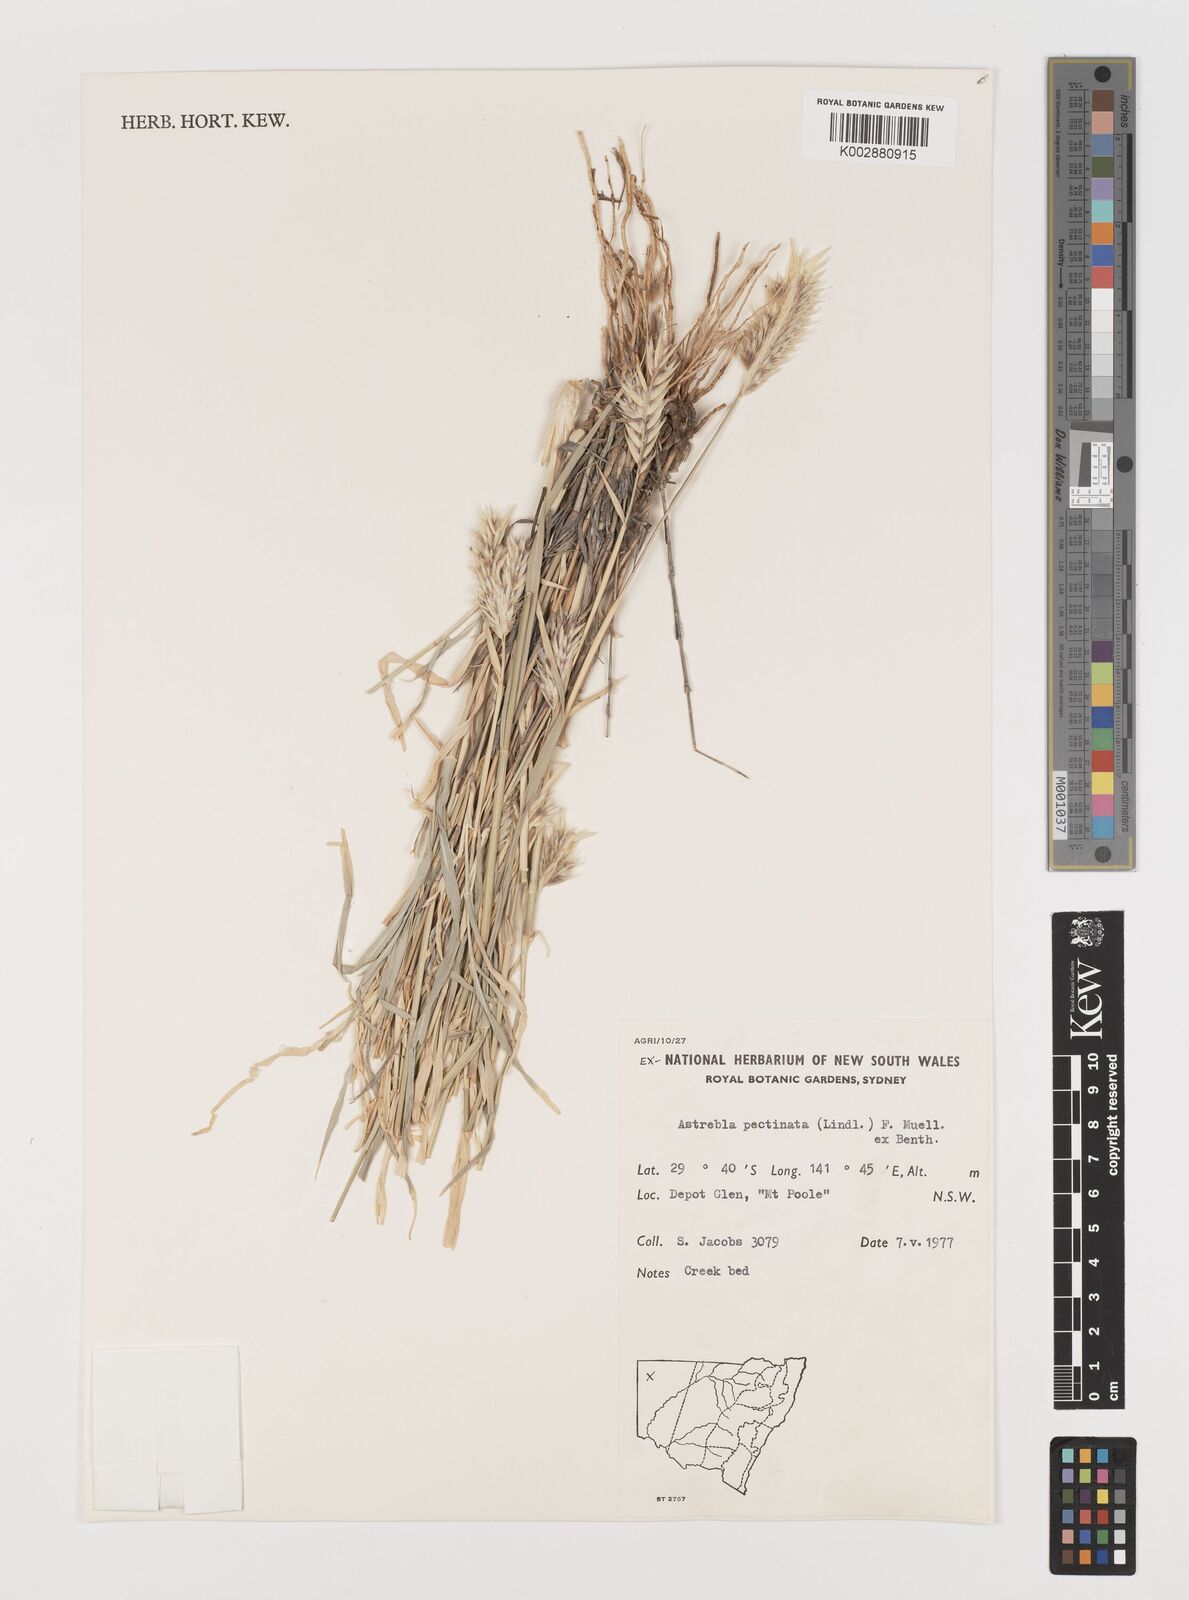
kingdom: Plantae
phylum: Tracheophyta
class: Liliopsida
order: Poales
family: Poaceae
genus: Astrebla
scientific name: Astrebla pectinata
